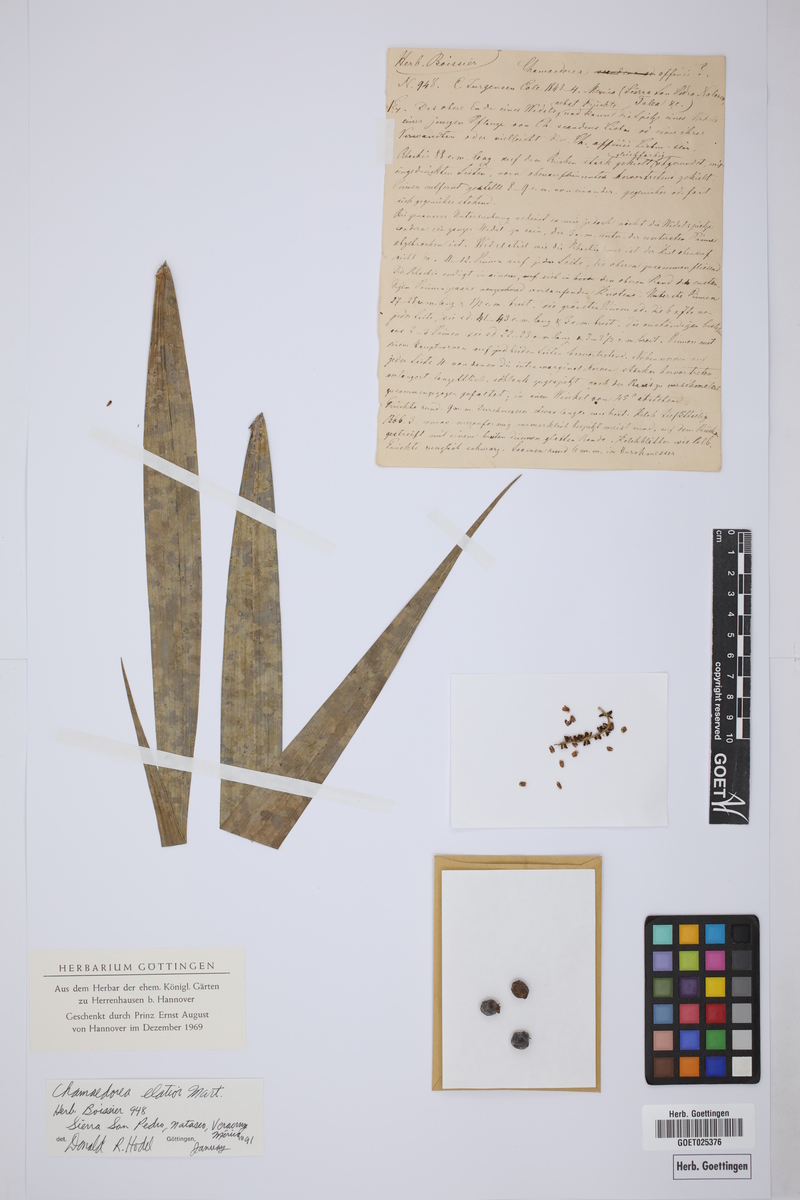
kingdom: Plantae
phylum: Tracheophyta
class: Liliopsida
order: Arecales
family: Arecaceae
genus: Chamaedorea
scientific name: Chamaedorea elatior
